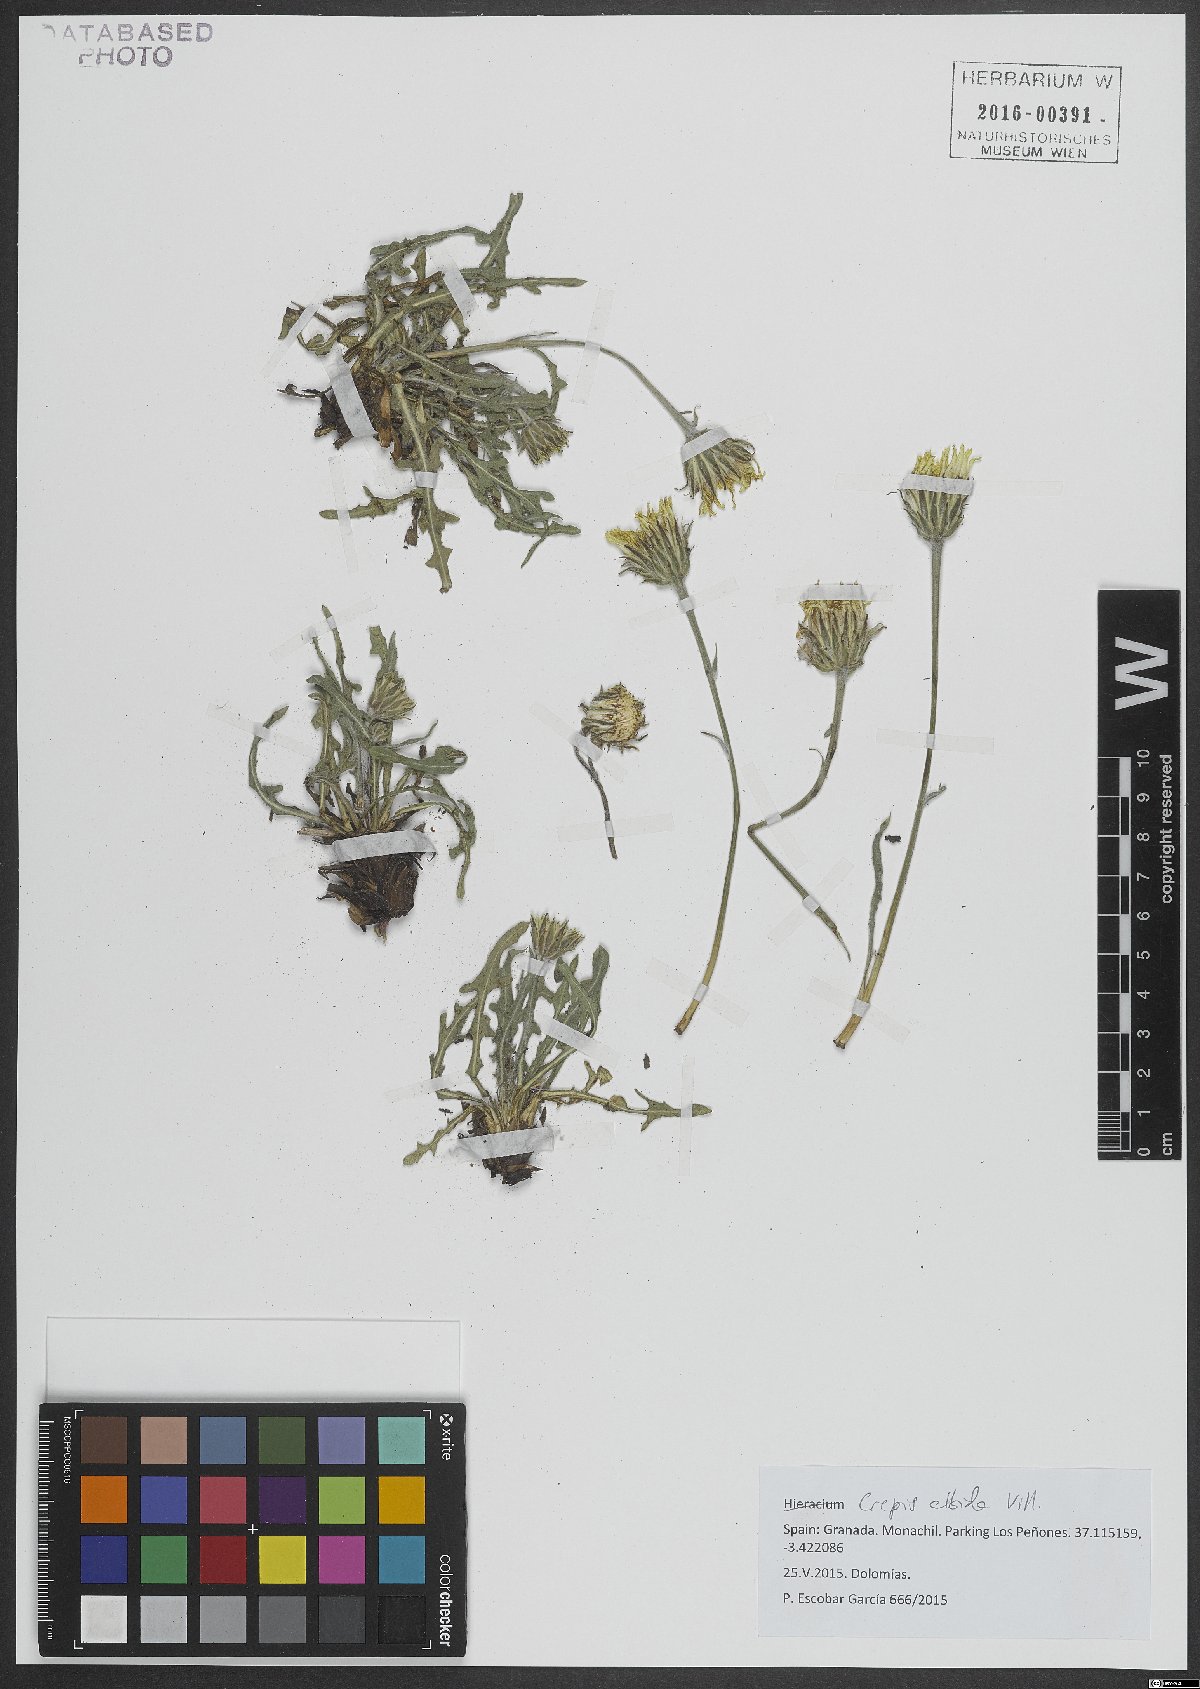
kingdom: Plantae
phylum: Tracheophyta
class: Magnoliopsida
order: Asterales
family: Asteraceae
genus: Crepis
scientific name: Crepis albida
